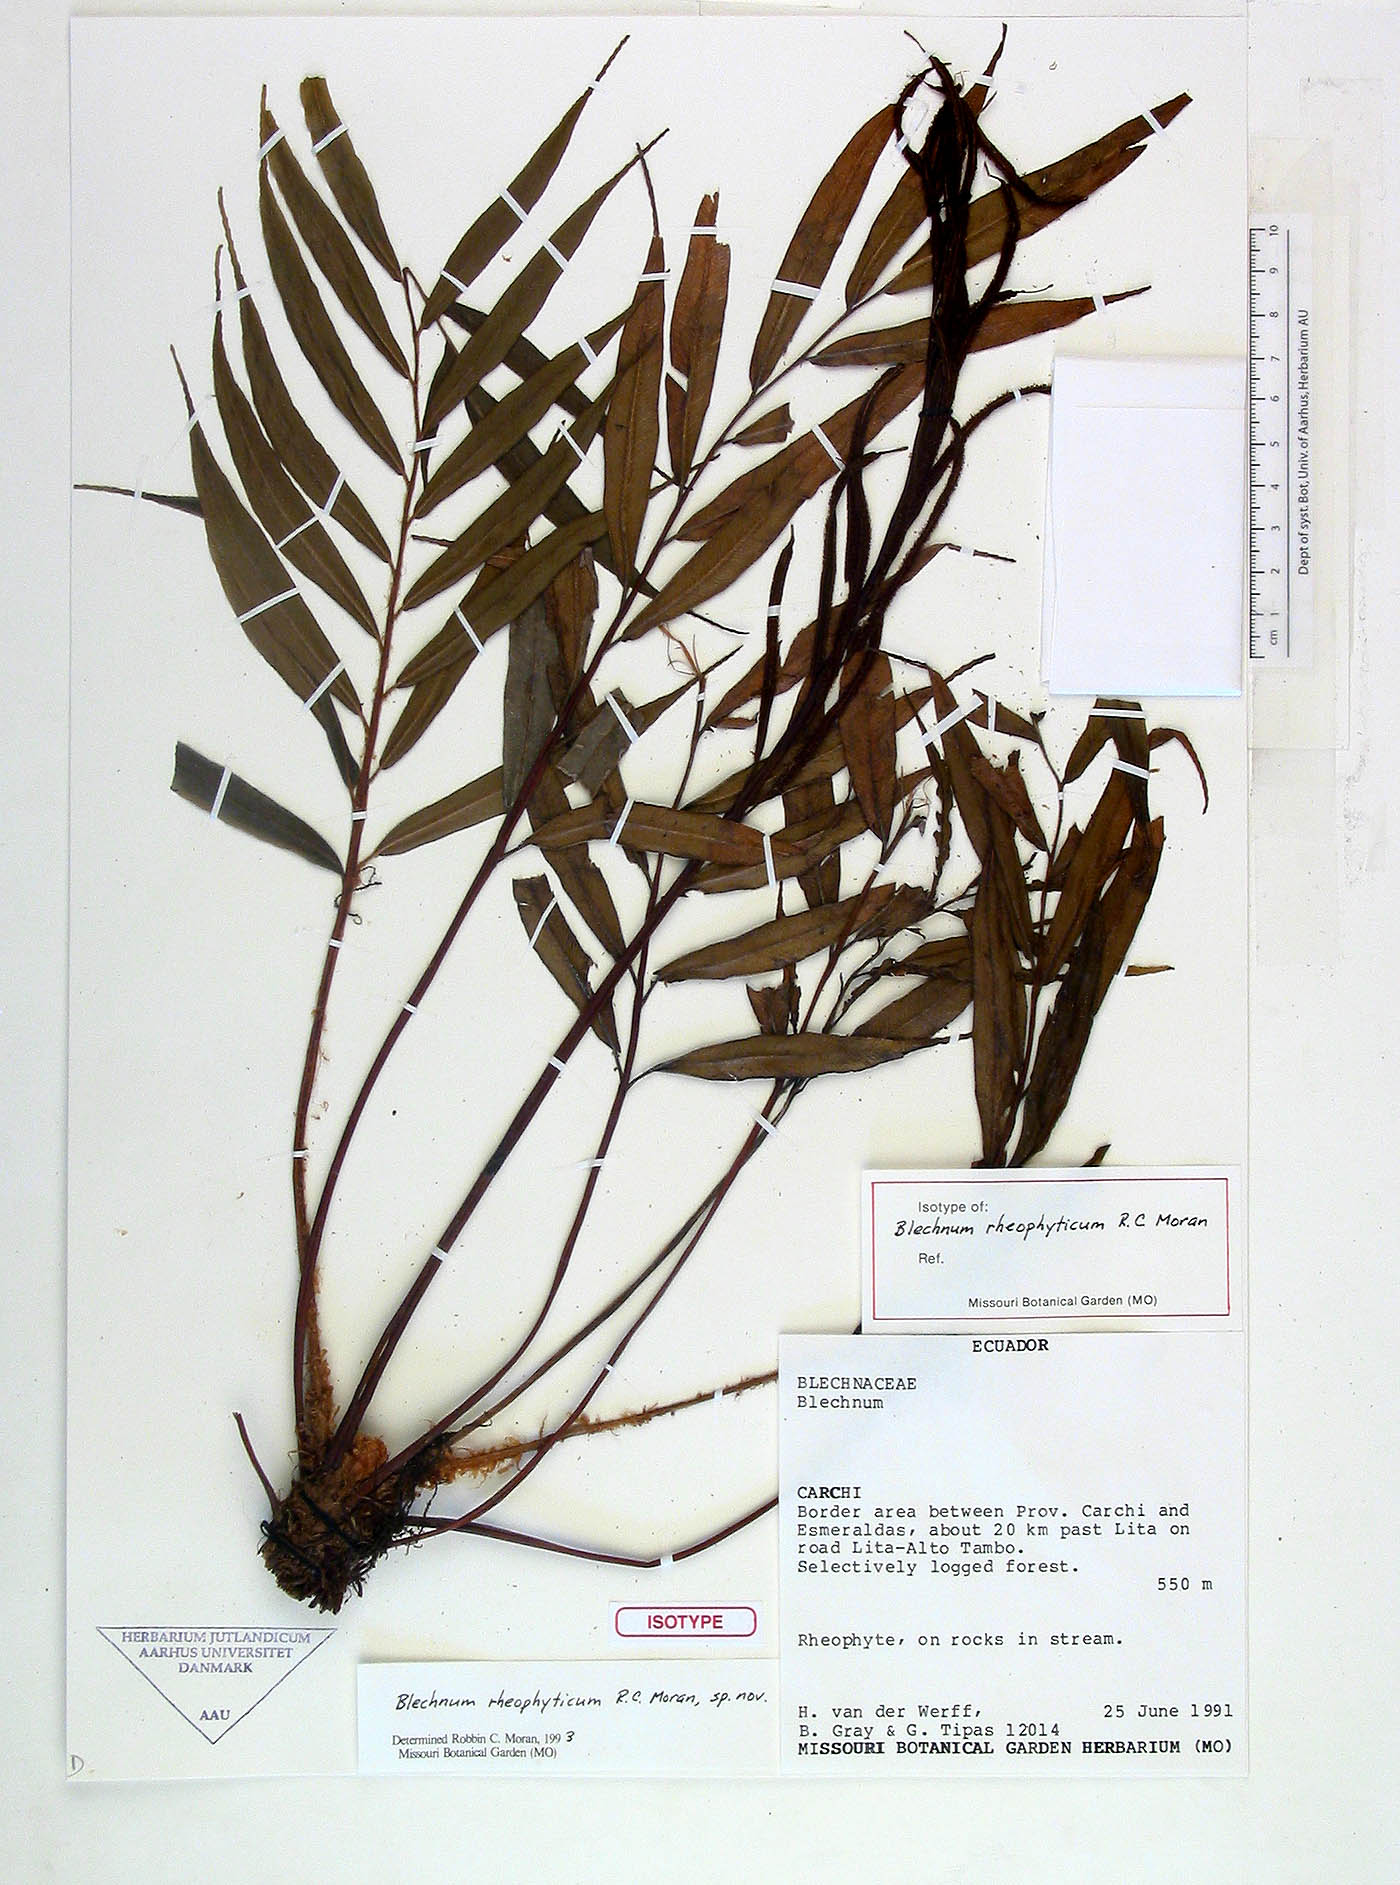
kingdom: Plantae
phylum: Tracheophyta
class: Polypodiopsida
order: Polypodiales
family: Blechnaceae
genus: Parablechnum
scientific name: Parablechnum rheophyticum
